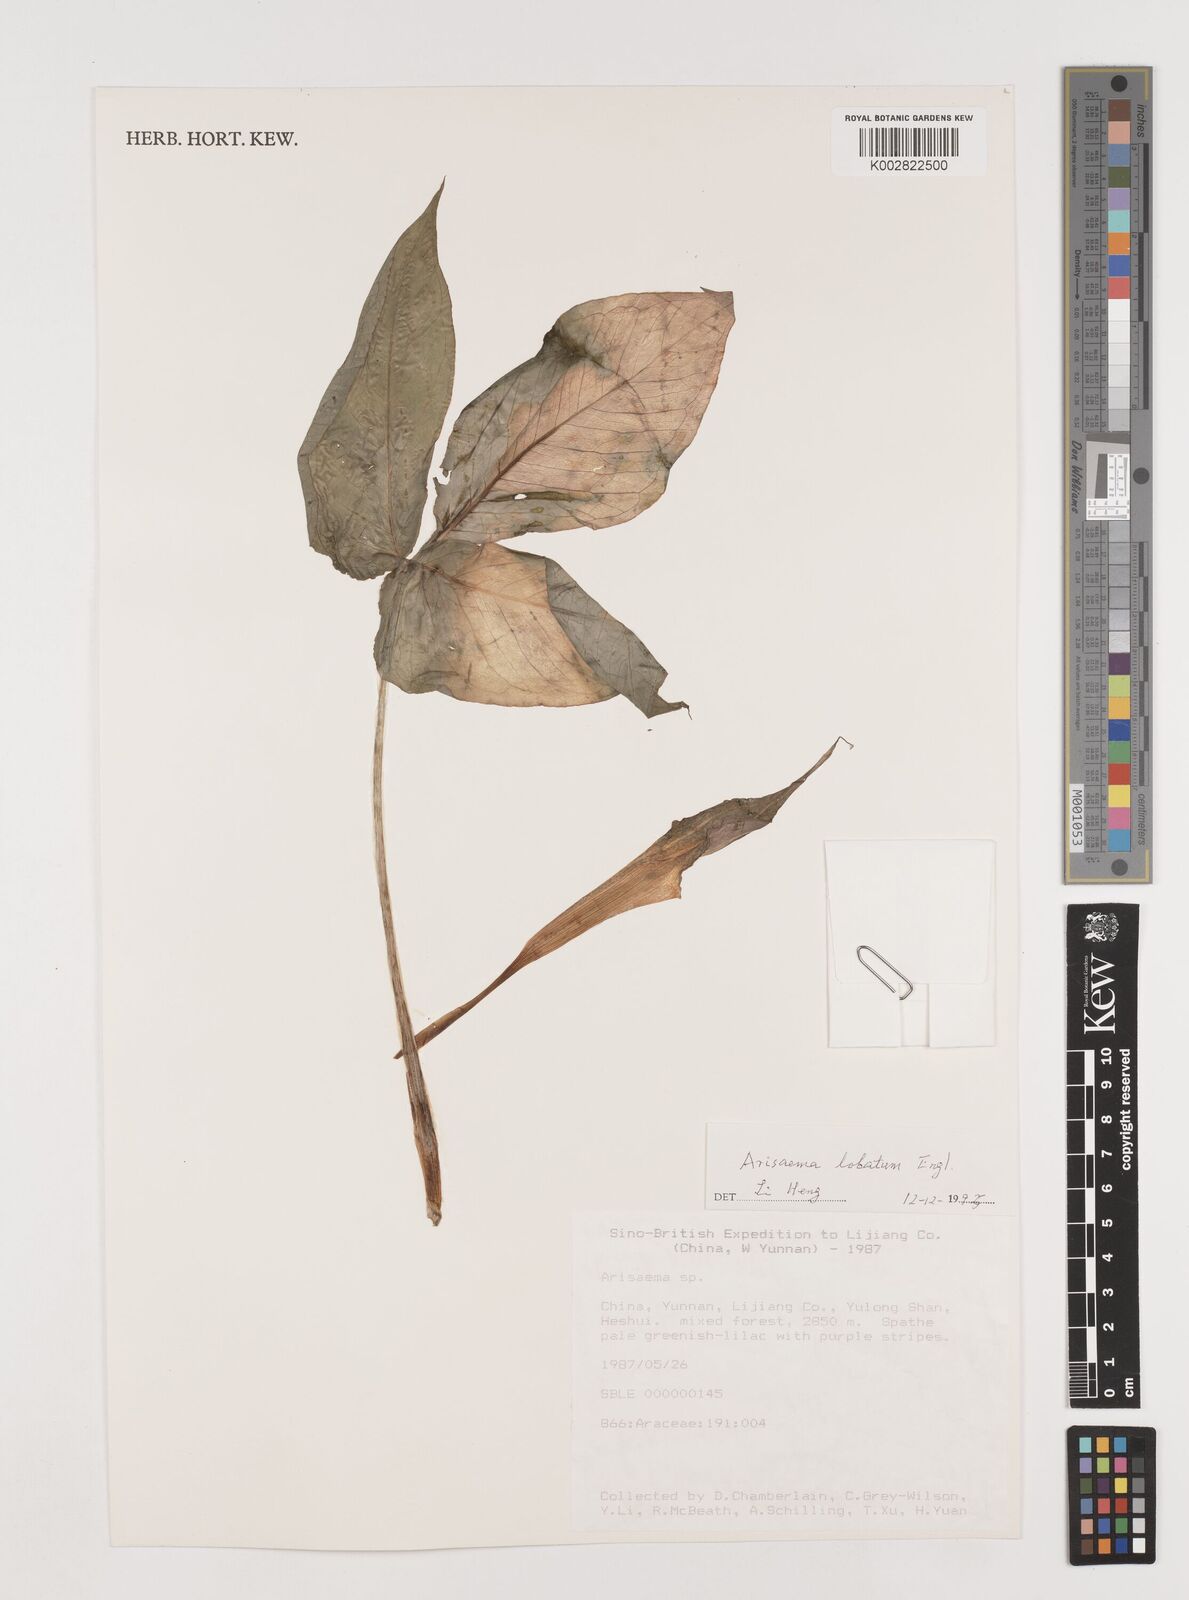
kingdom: Plantae
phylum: Tracheophyta
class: Liliopsida
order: Alismatales
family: Araceae
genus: Arisaema
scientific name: Arisaema lobatum
